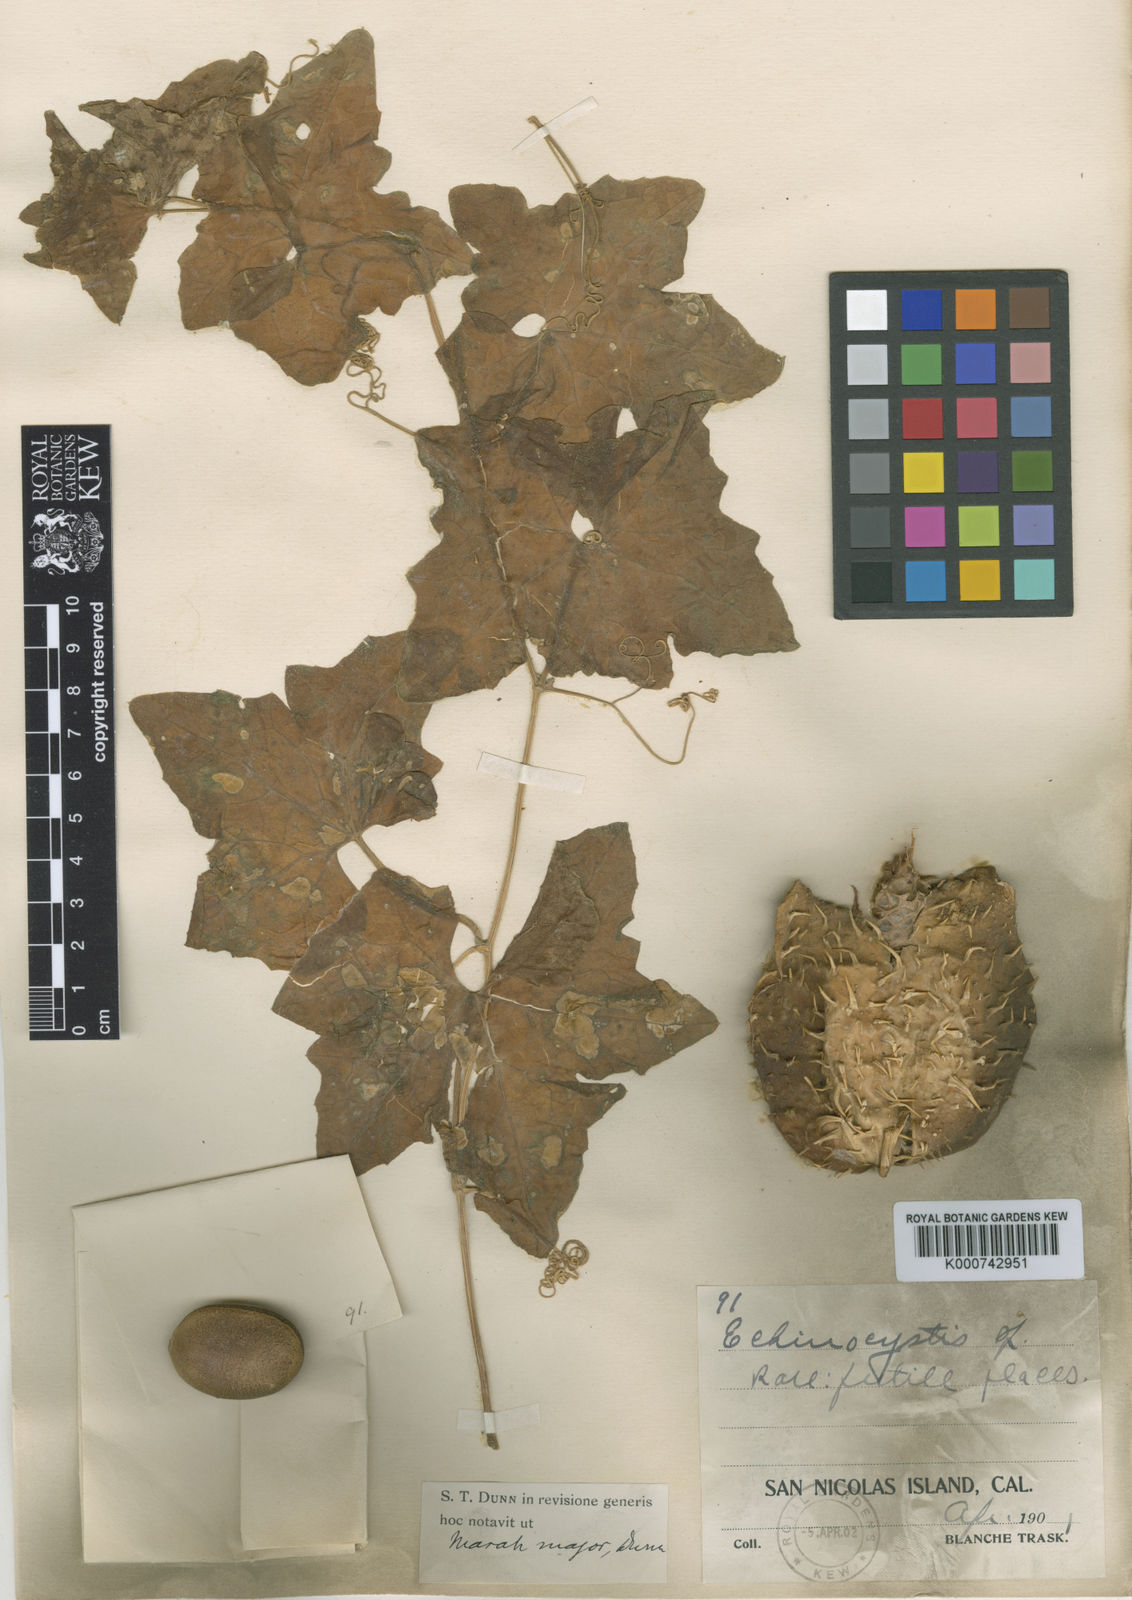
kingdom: Plantae
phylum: Tracheophyta
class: Magnoliopsida
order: Cucurbitales
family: Cucurbitaceae
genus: Marah
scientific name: Marah guadalupensis
